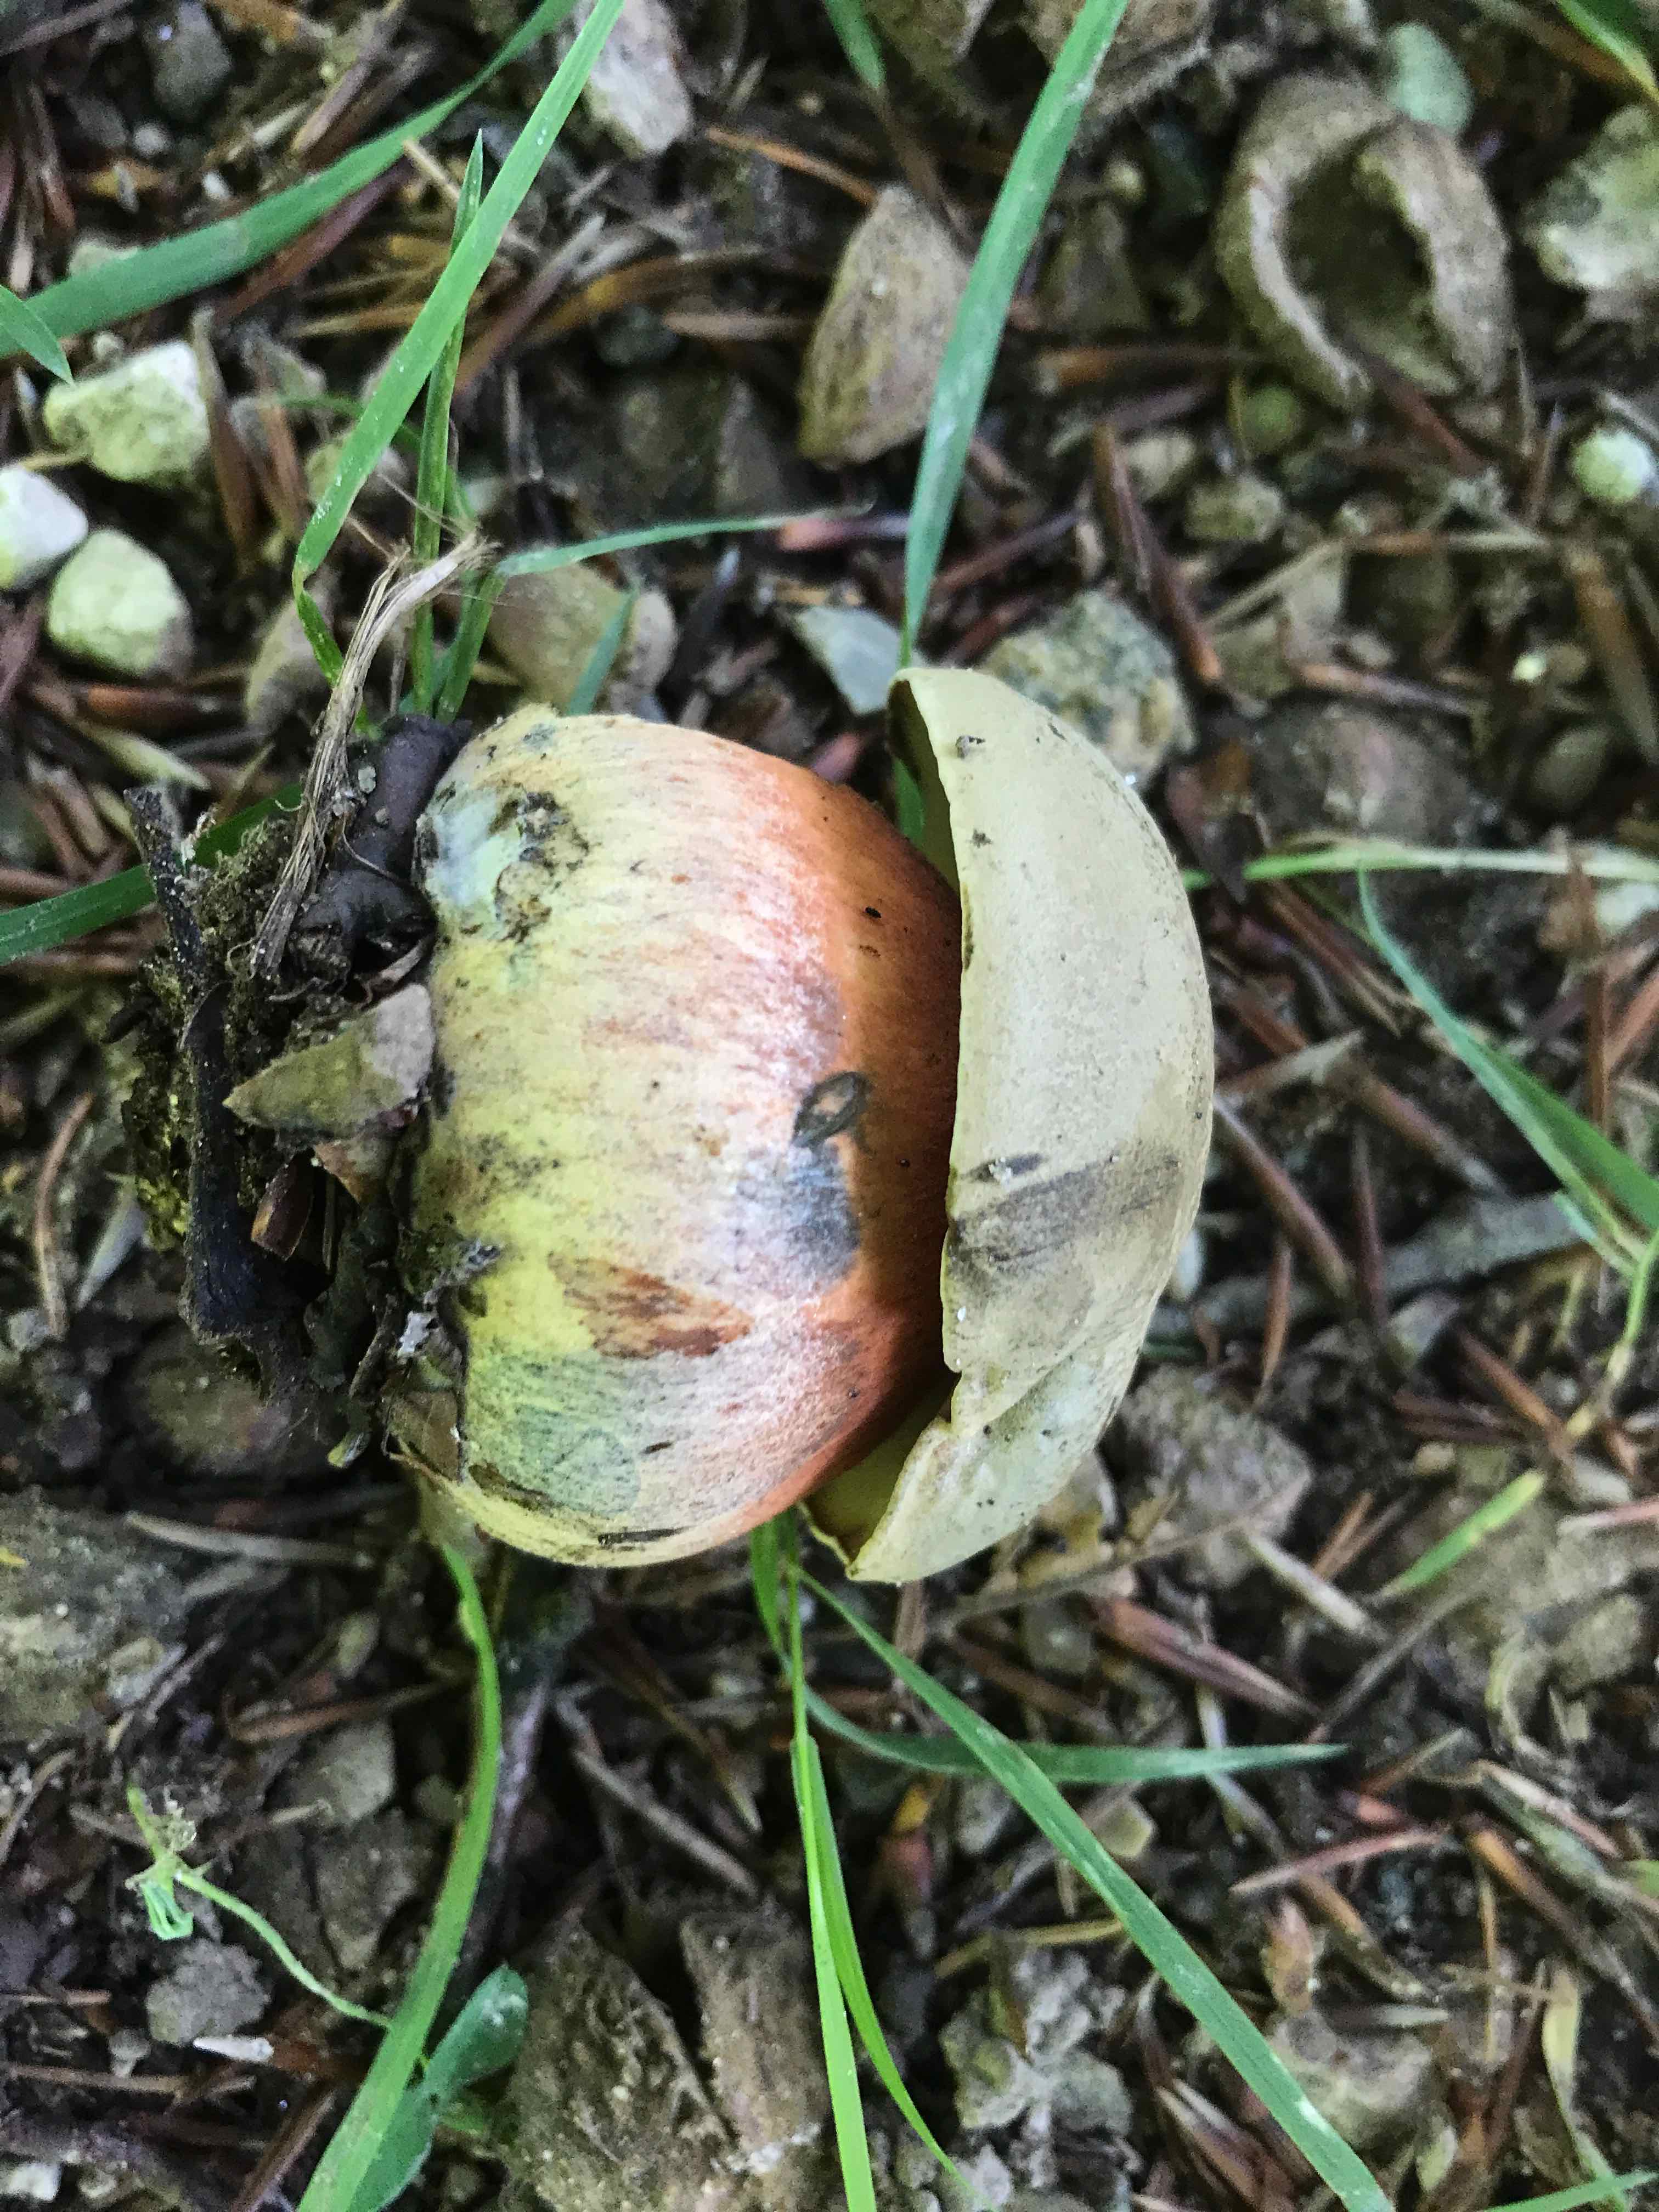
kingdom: Fungi
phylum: Basidiomycota
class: Agaricomycetes
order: Boletales
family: Boletaceae
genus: Sutorius
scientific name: Sutorius
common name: indigorørhat
